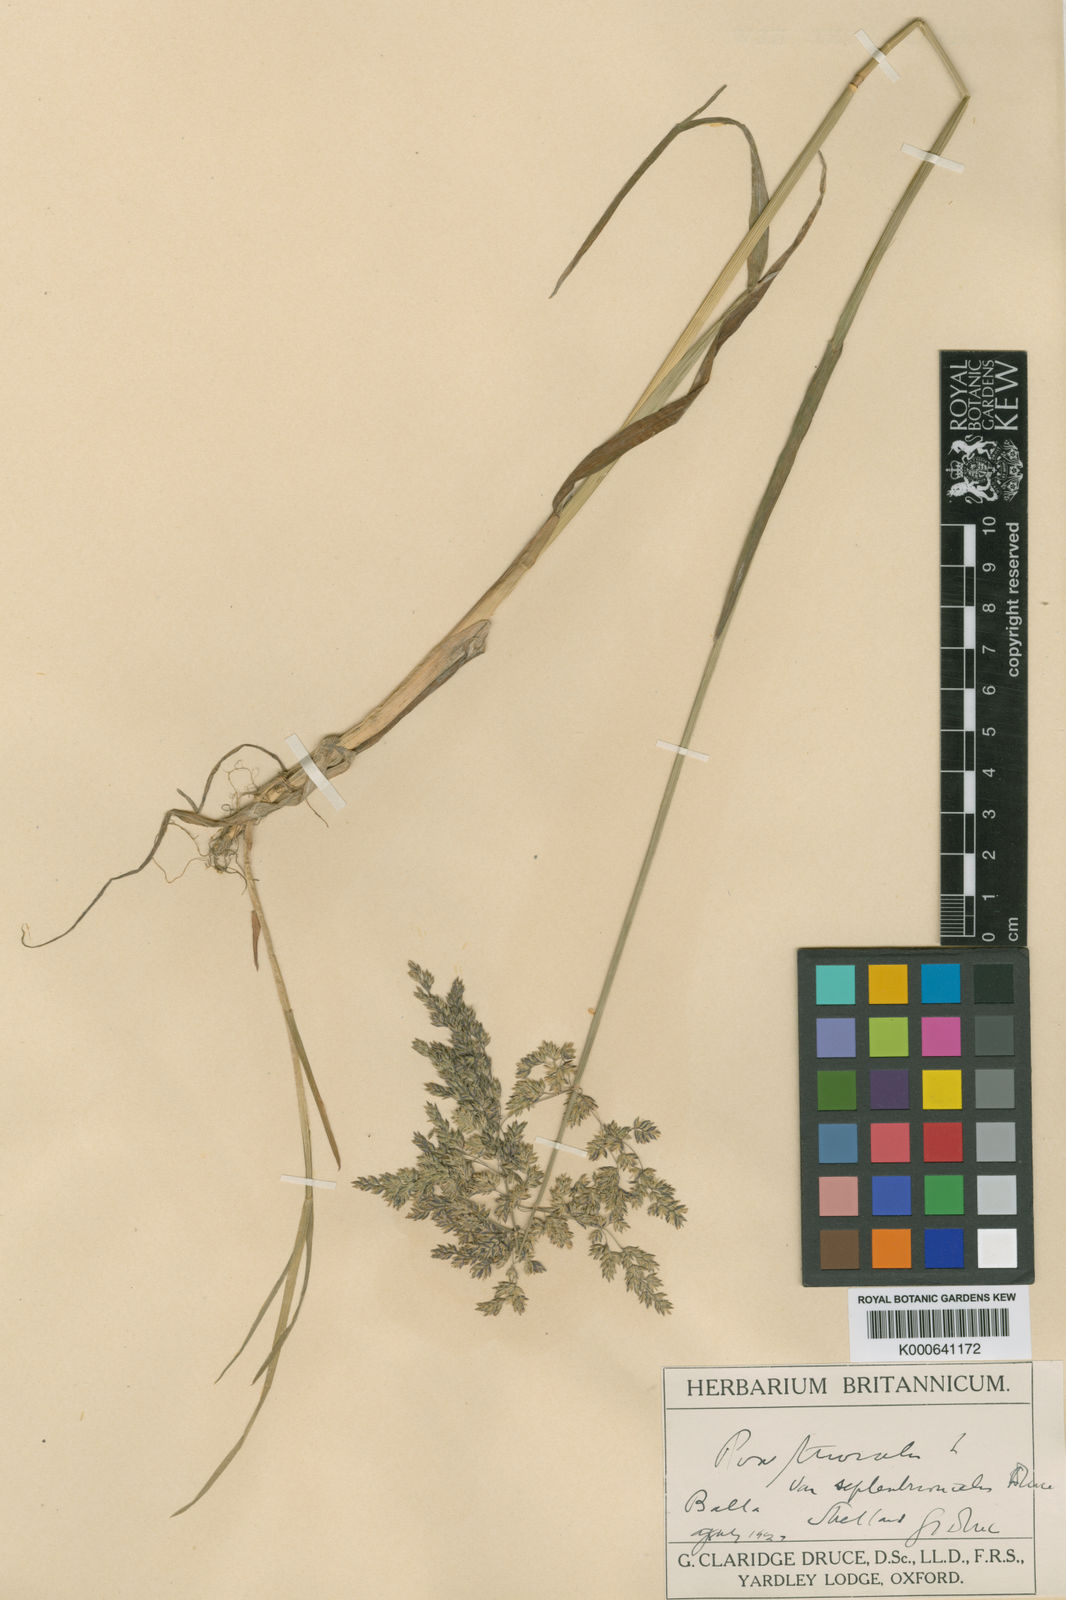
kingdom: Plantae
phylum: Tracheophyta
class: Liliopsida
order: Poales
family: Poaceae
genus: Poa
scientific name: Poa trivialis
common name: Rough bluegrass
